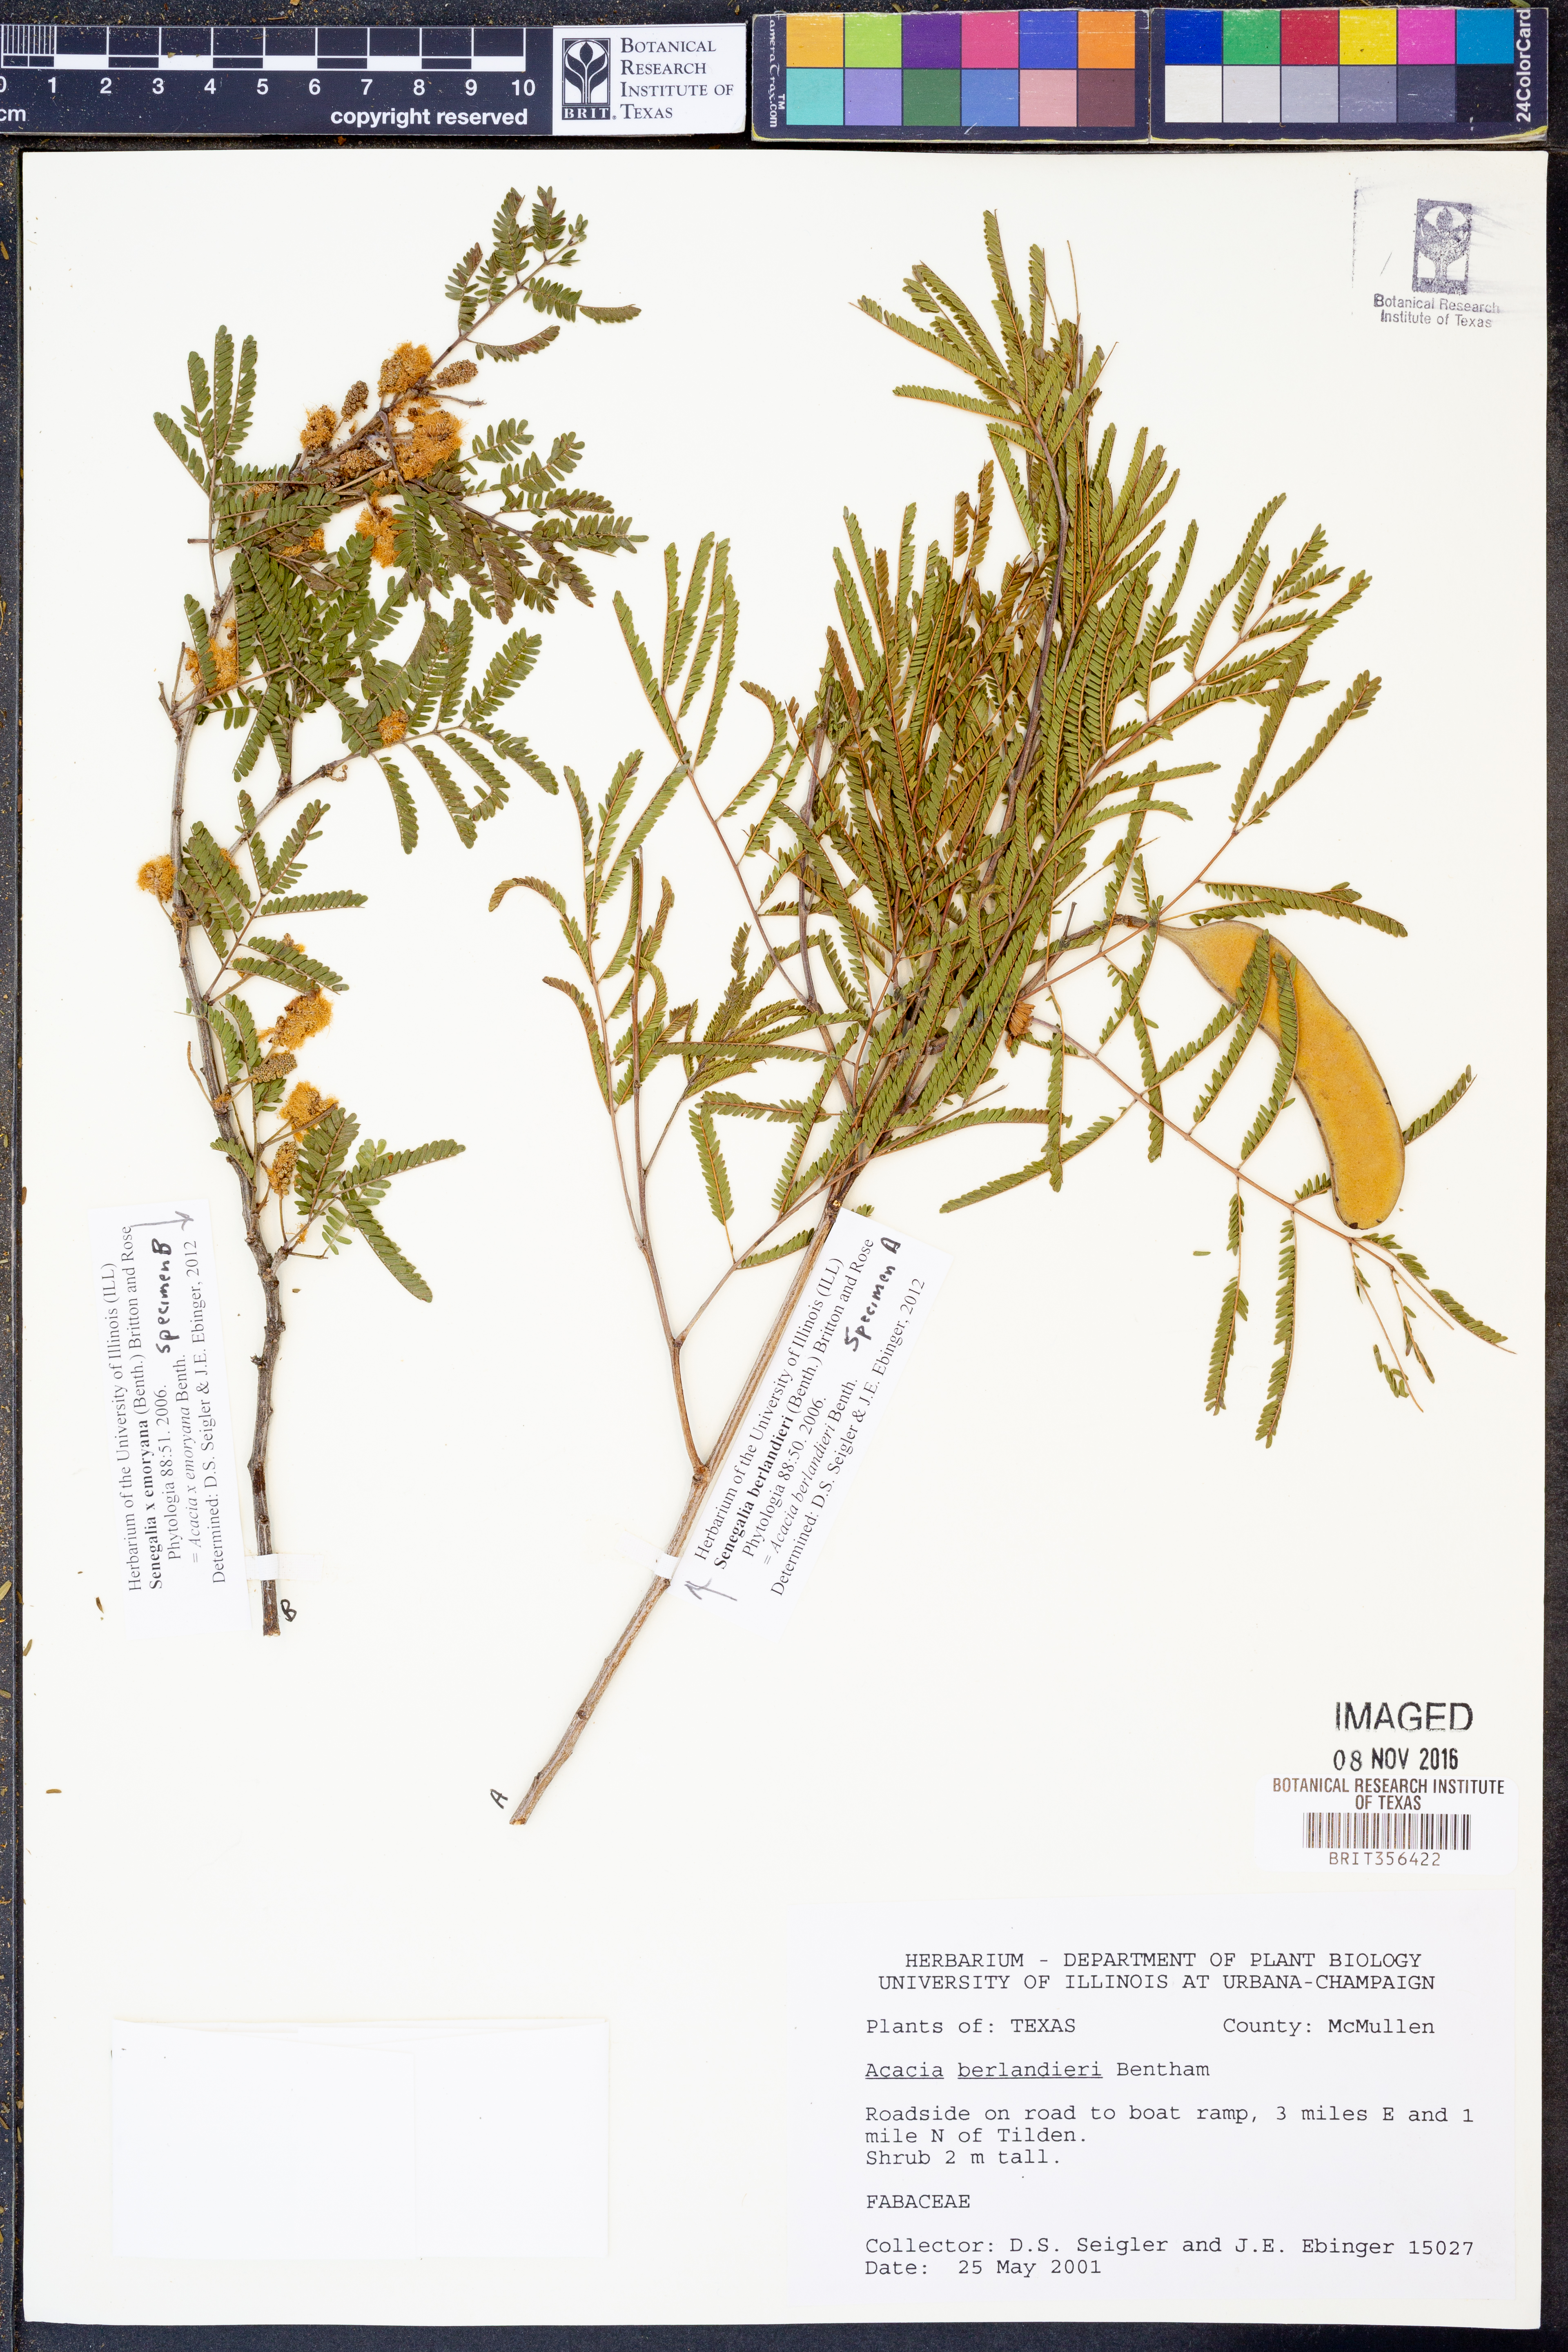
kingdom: Plantae
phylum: Tracheophyta
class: Magnoliopsida
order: Fabales
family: Fabaceae
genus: Senegalia
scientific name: Senegalia berlandieri
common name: Berlandier acacia
